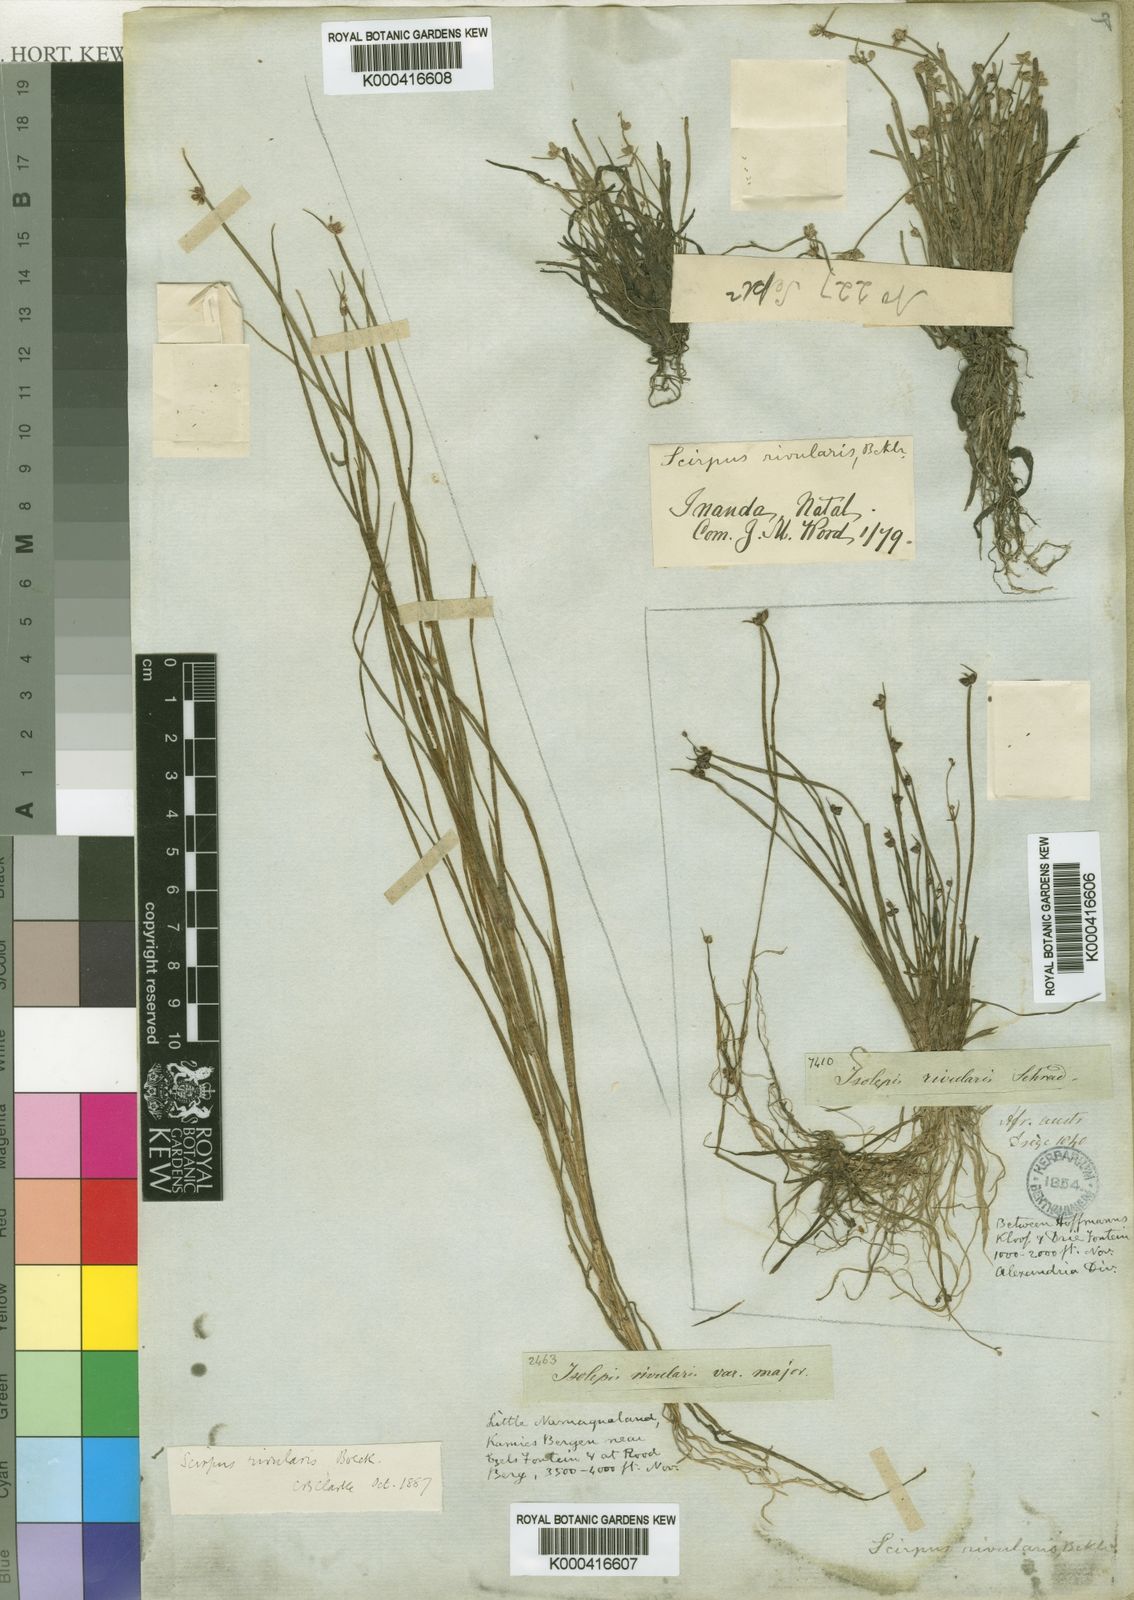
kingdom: Plantae
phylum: Tracheophyta
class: Liliopsida
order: Poales
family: Cyperaceae
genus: Isolepis
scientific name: Isolepis natans
